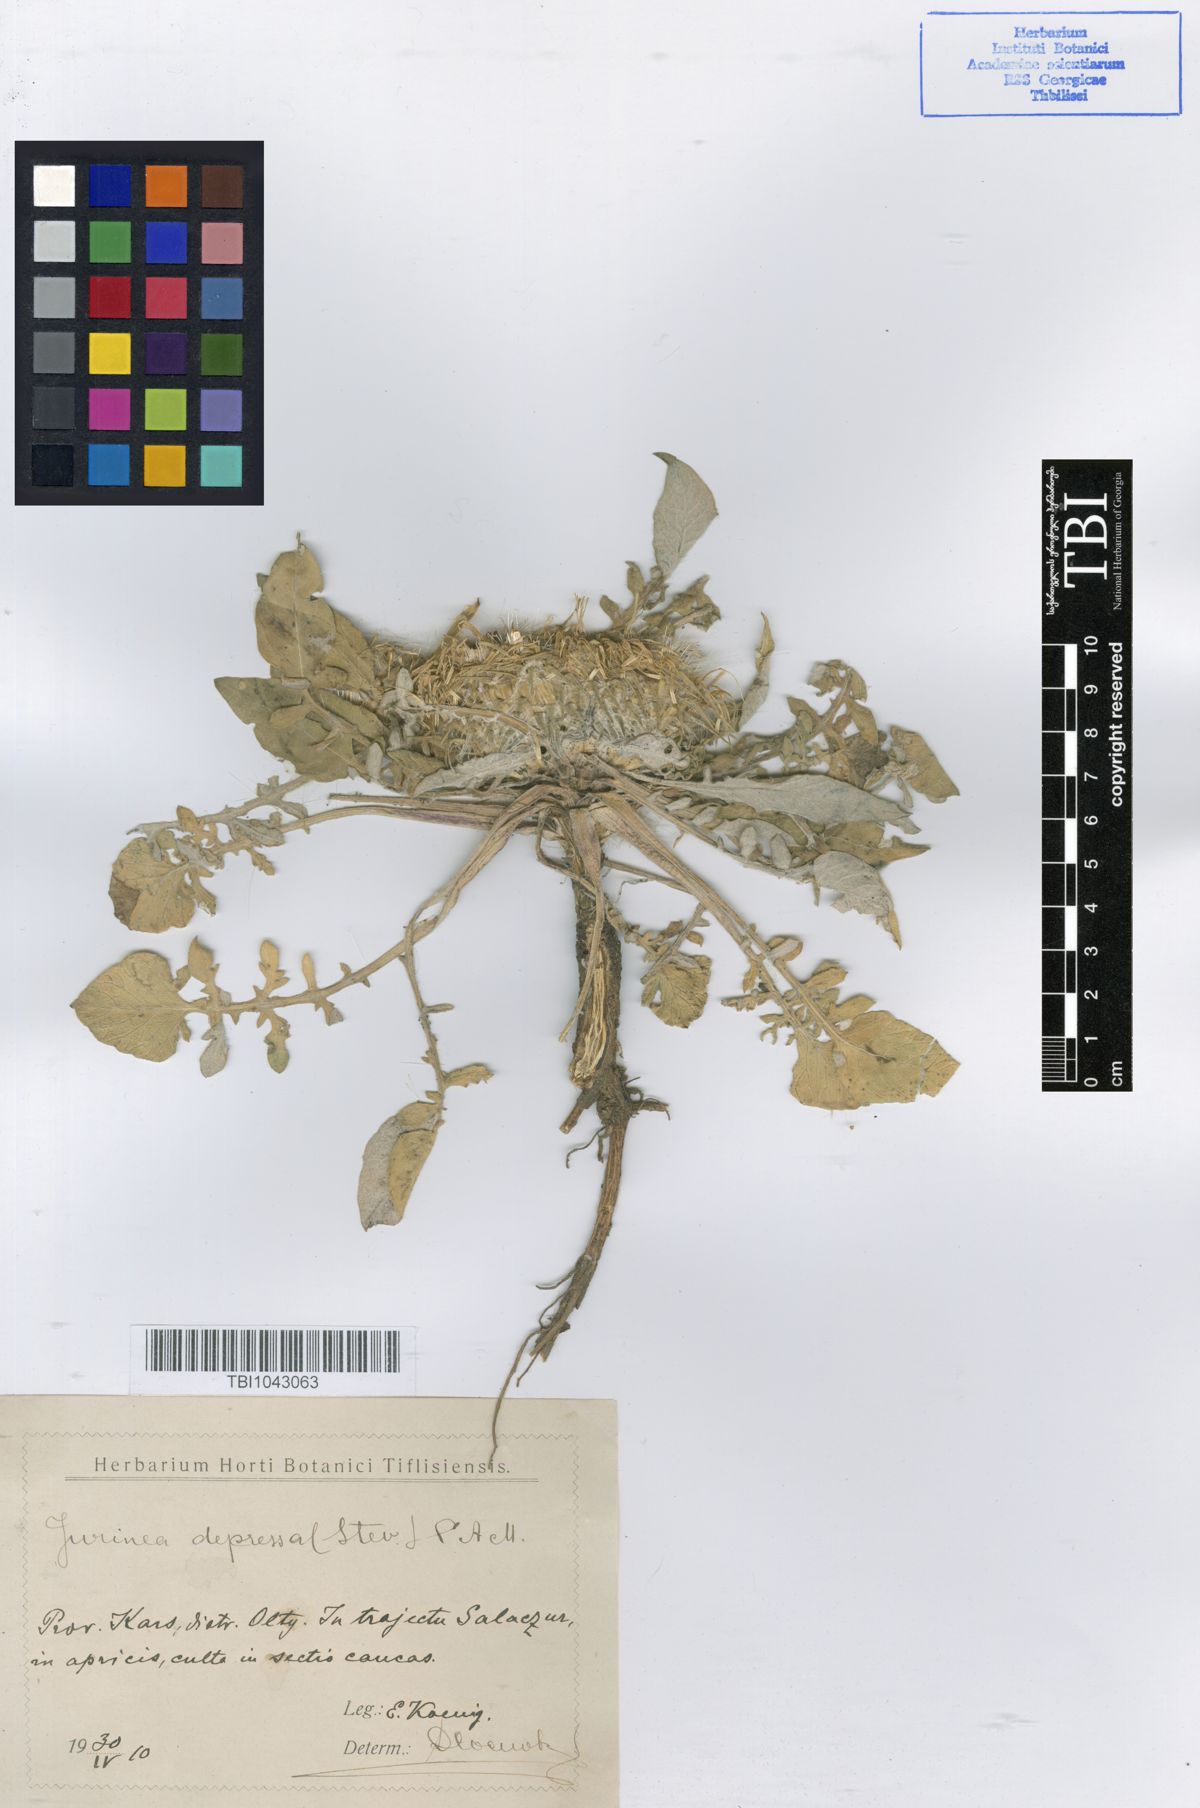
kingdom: Plantae
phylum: Tracheophyta
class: Magnoliopsida
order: Asterales
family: Asteraceae
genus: Jurinea
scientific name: Jurinea moschus
